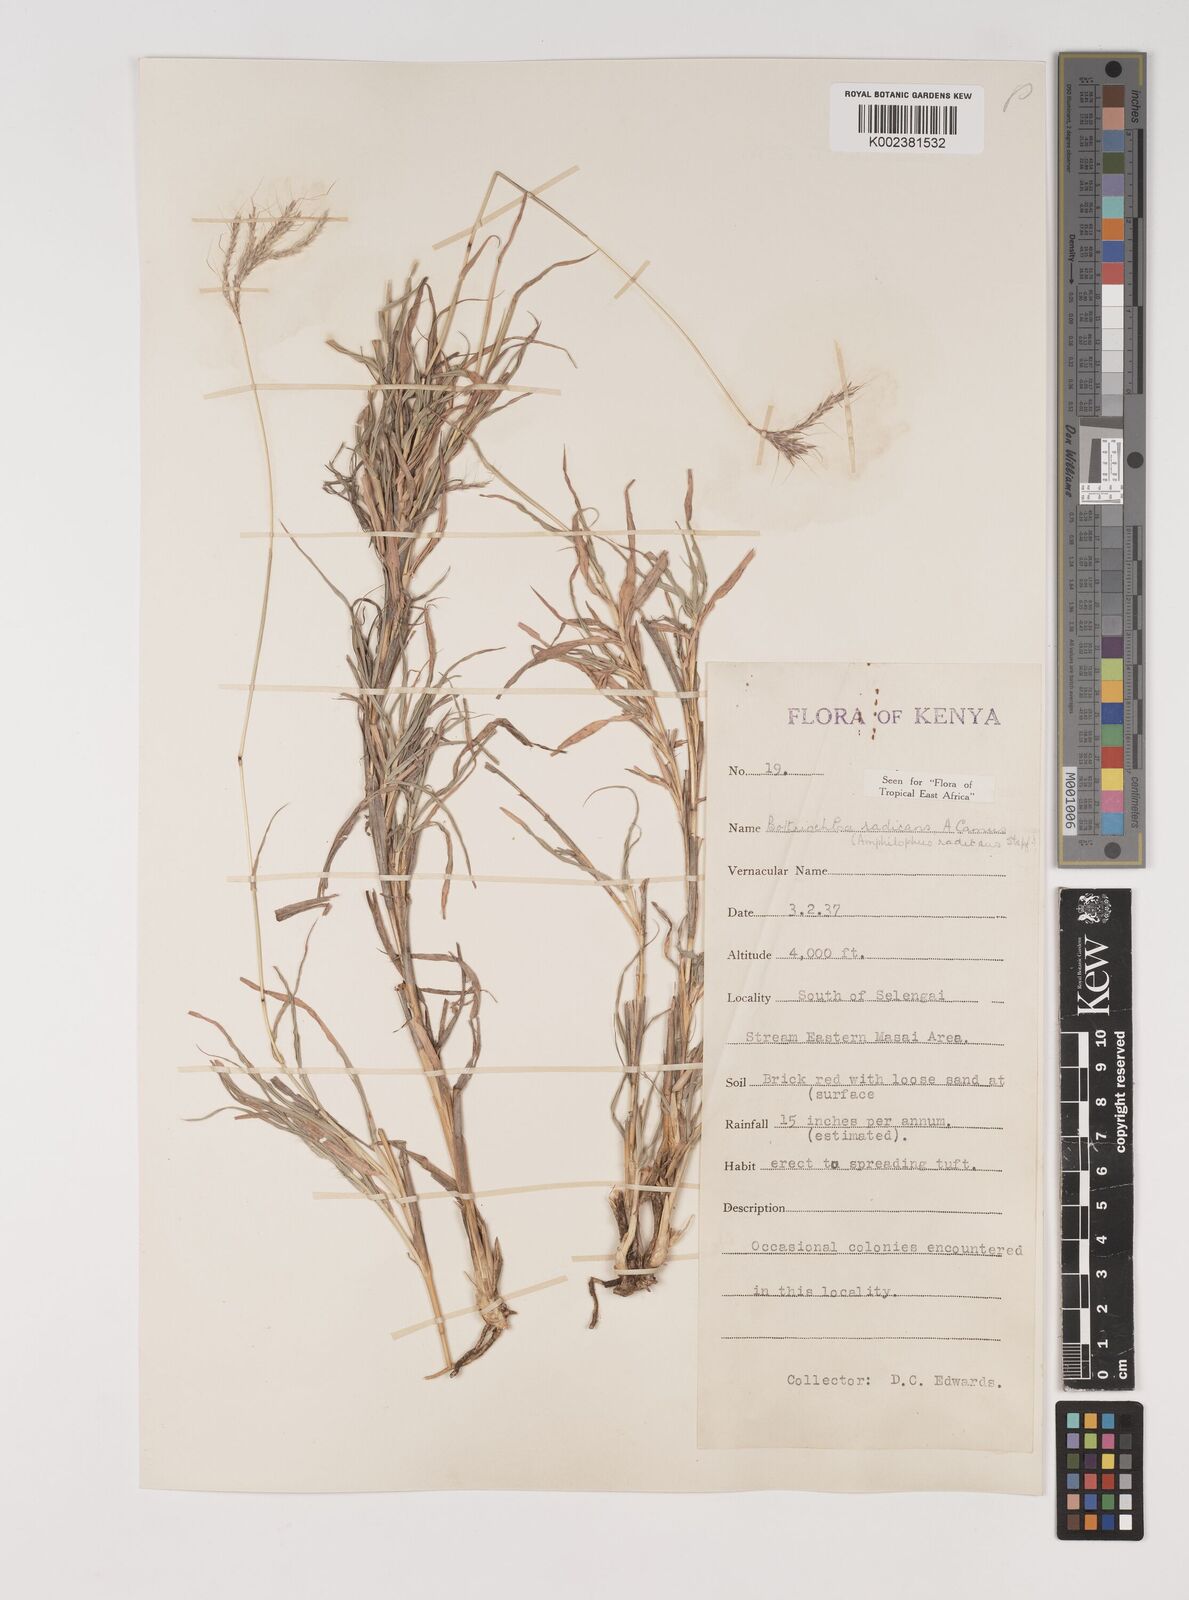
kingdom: Plantae
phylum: Tracheophyta
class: Liliopsida
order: Poales
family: Poaceae
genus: Bothriochloa
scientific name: Bothriochloa radicans
